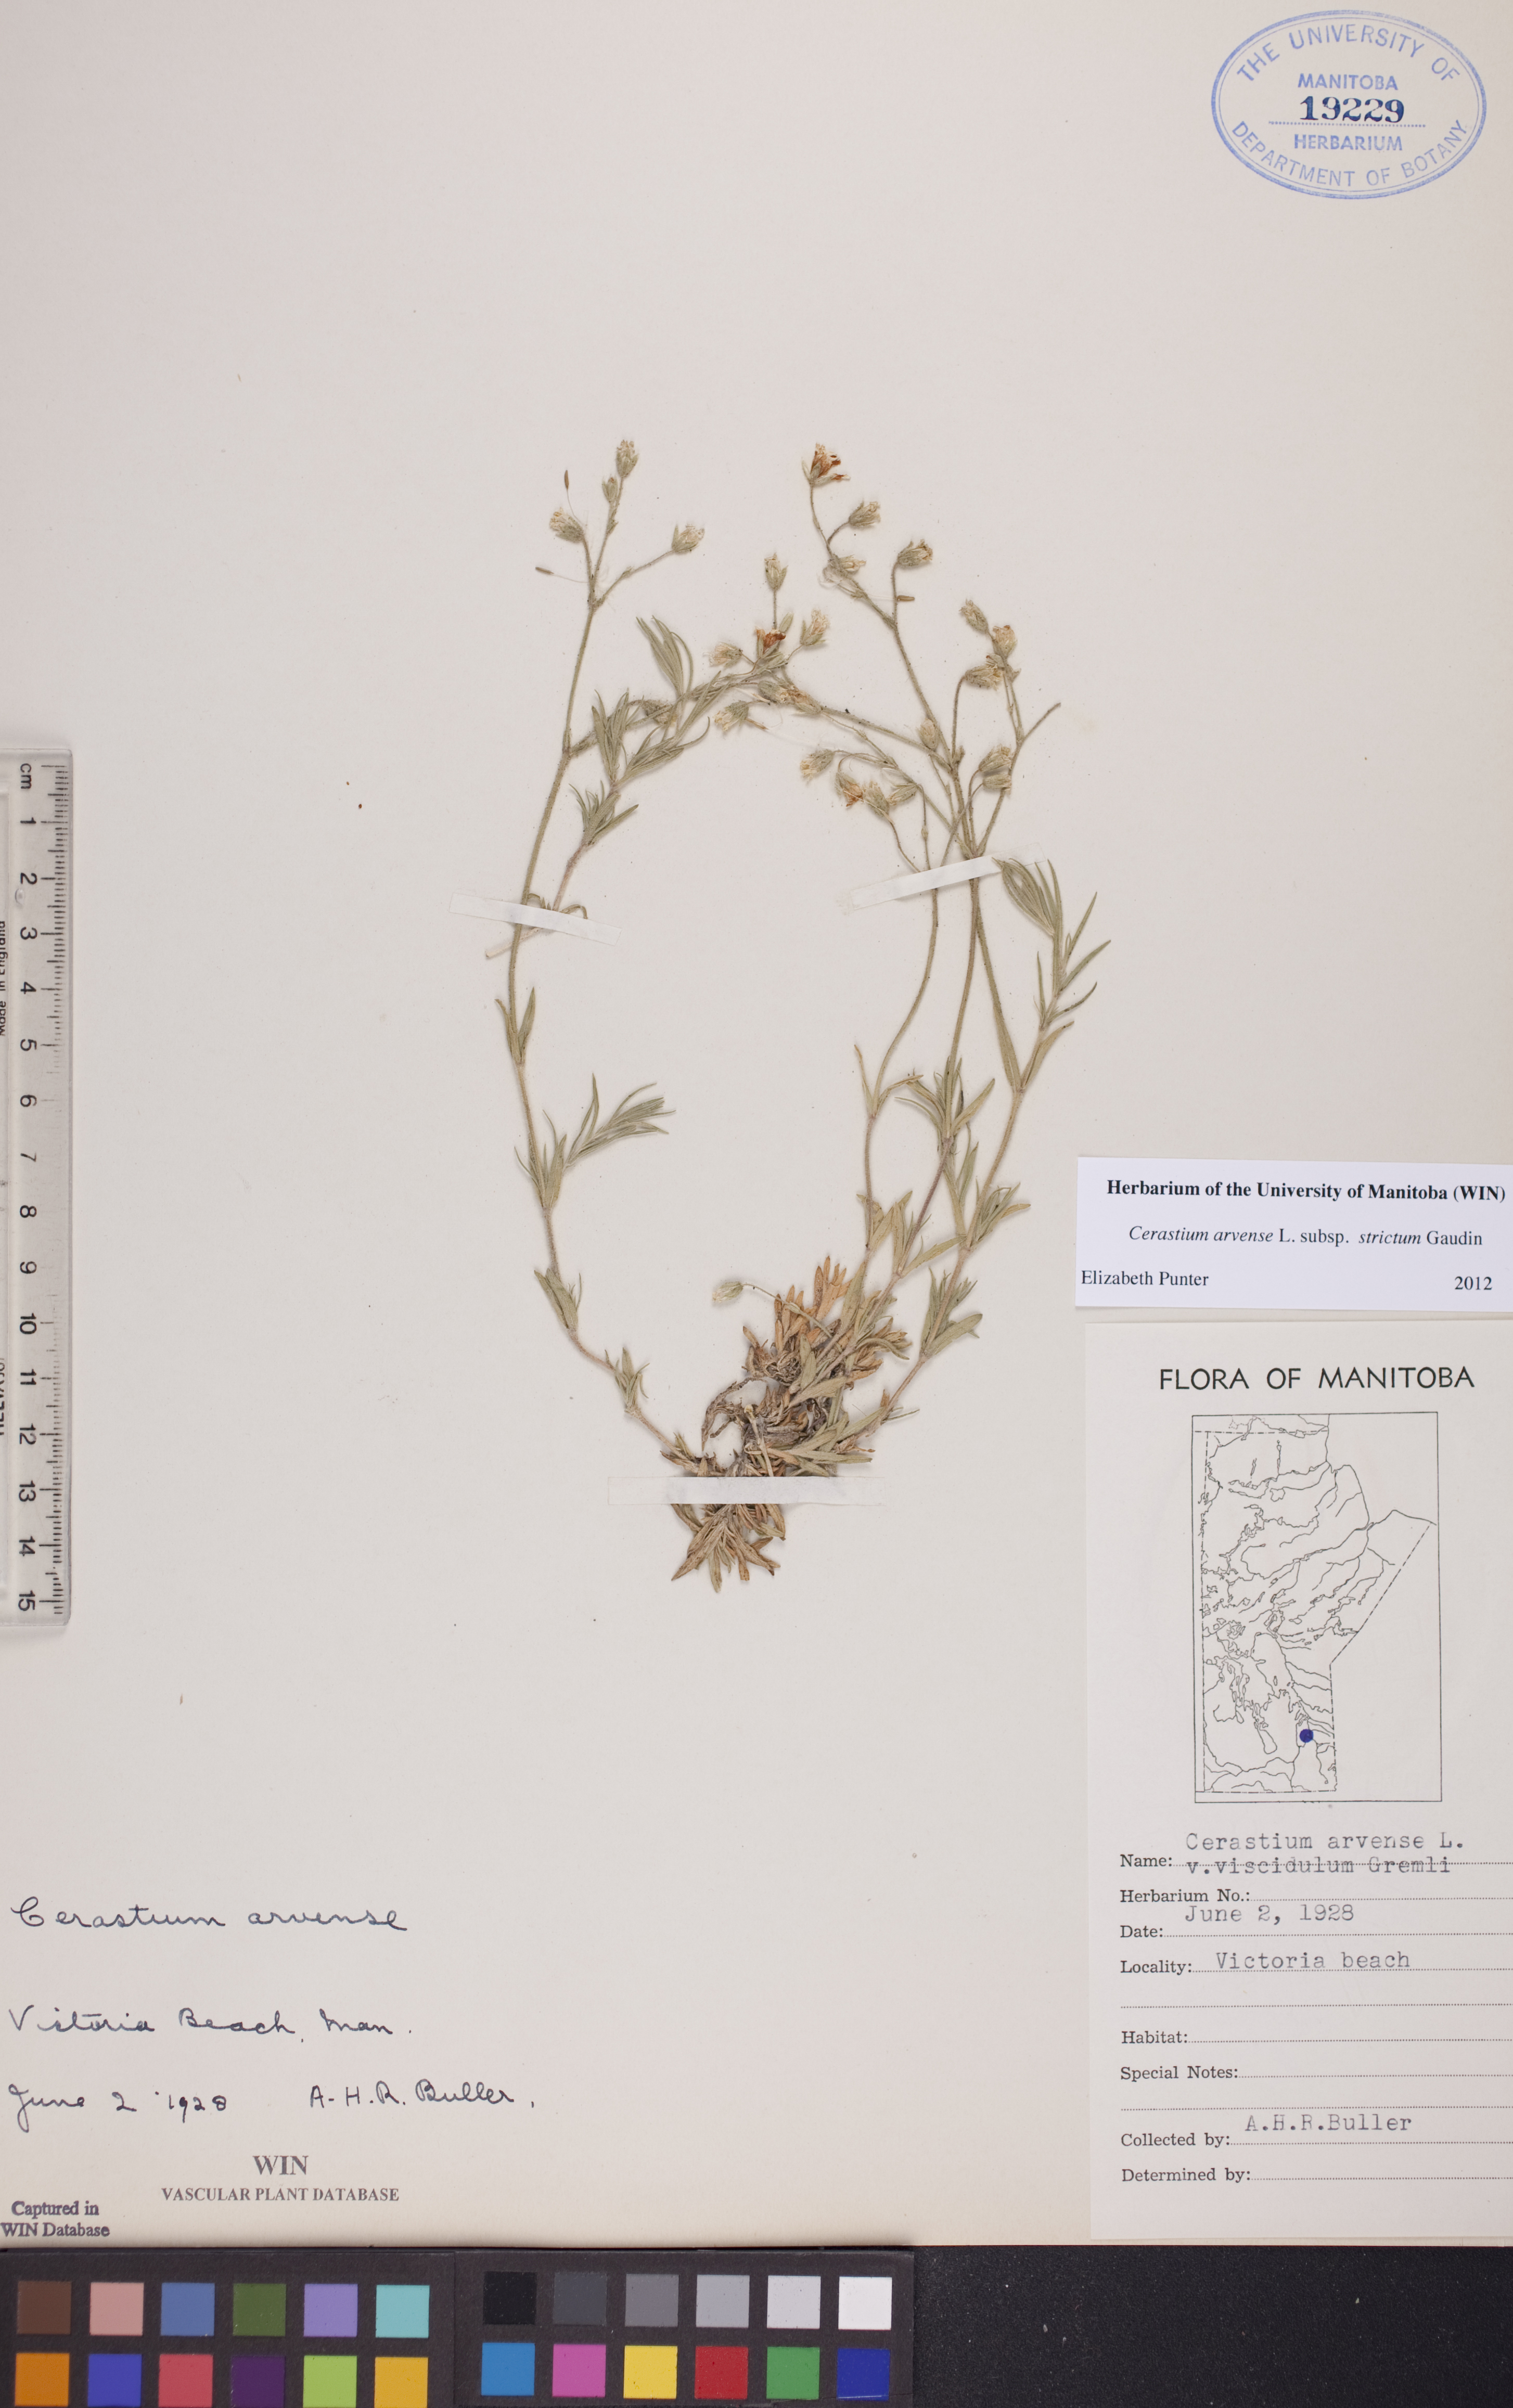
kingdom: Plantae
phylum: Tracheophyta
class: Magnoliopsida
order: Caryophyllales
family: Caryophyllaceae
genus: Cerastium
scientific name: Cerastium elongatum
